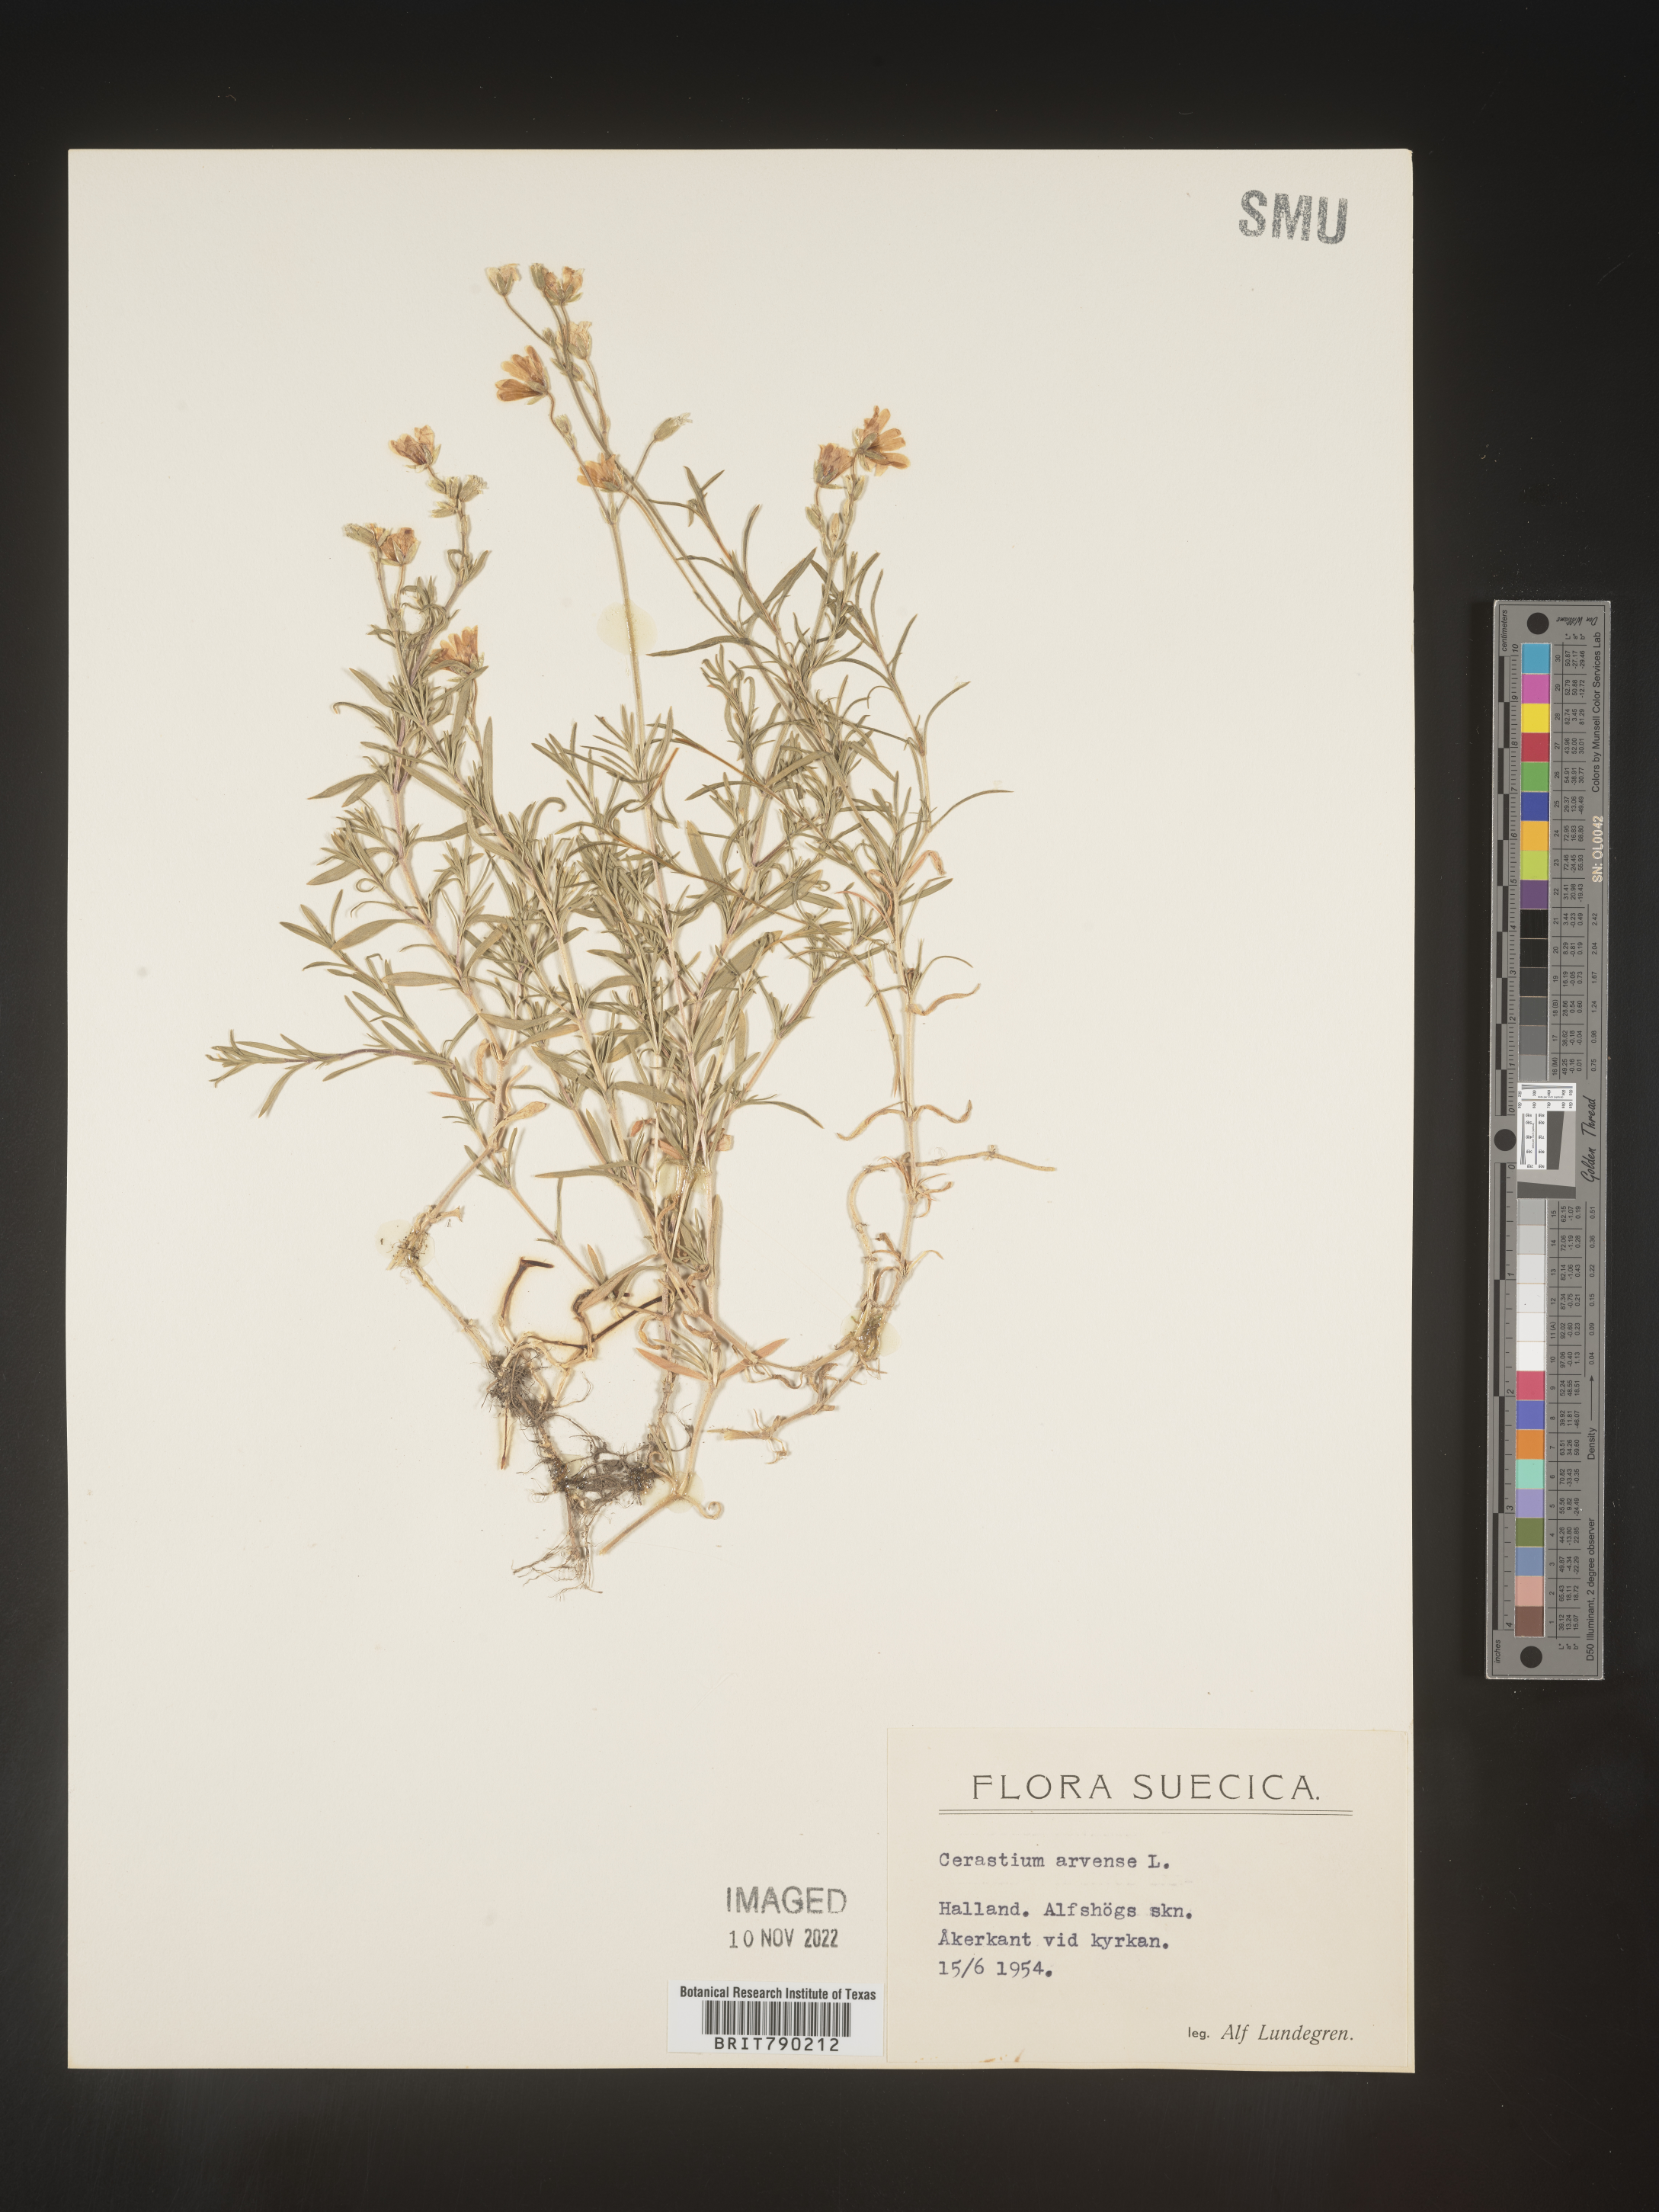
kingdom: Plantae
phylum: Tracheophyta
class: Magnoliopsida
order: Caryophyllales
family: Caryophyllaceae
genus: Cerastium
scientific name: Cerastium
